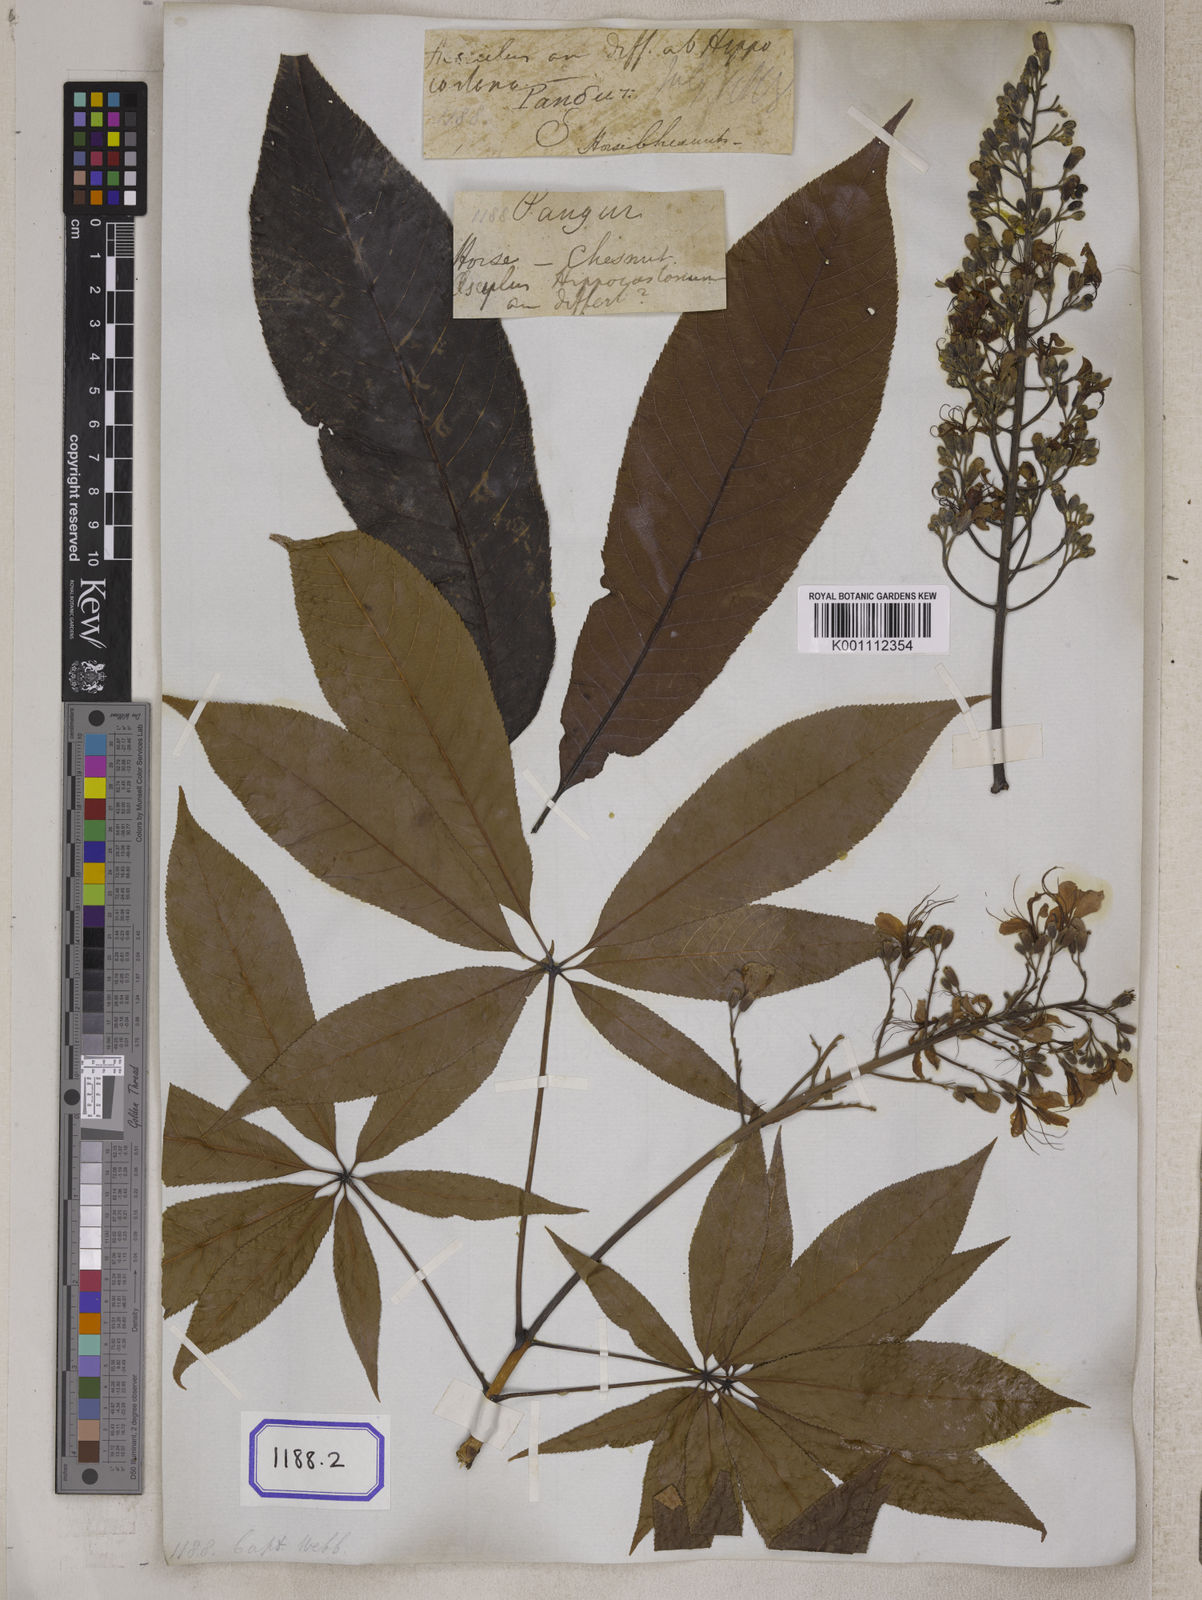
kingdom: Plantae
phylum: Tracheophyta
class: Magnoliopsida
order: Sapindales
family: Sapindaceae
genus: Aesculus
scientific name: Aesculus
